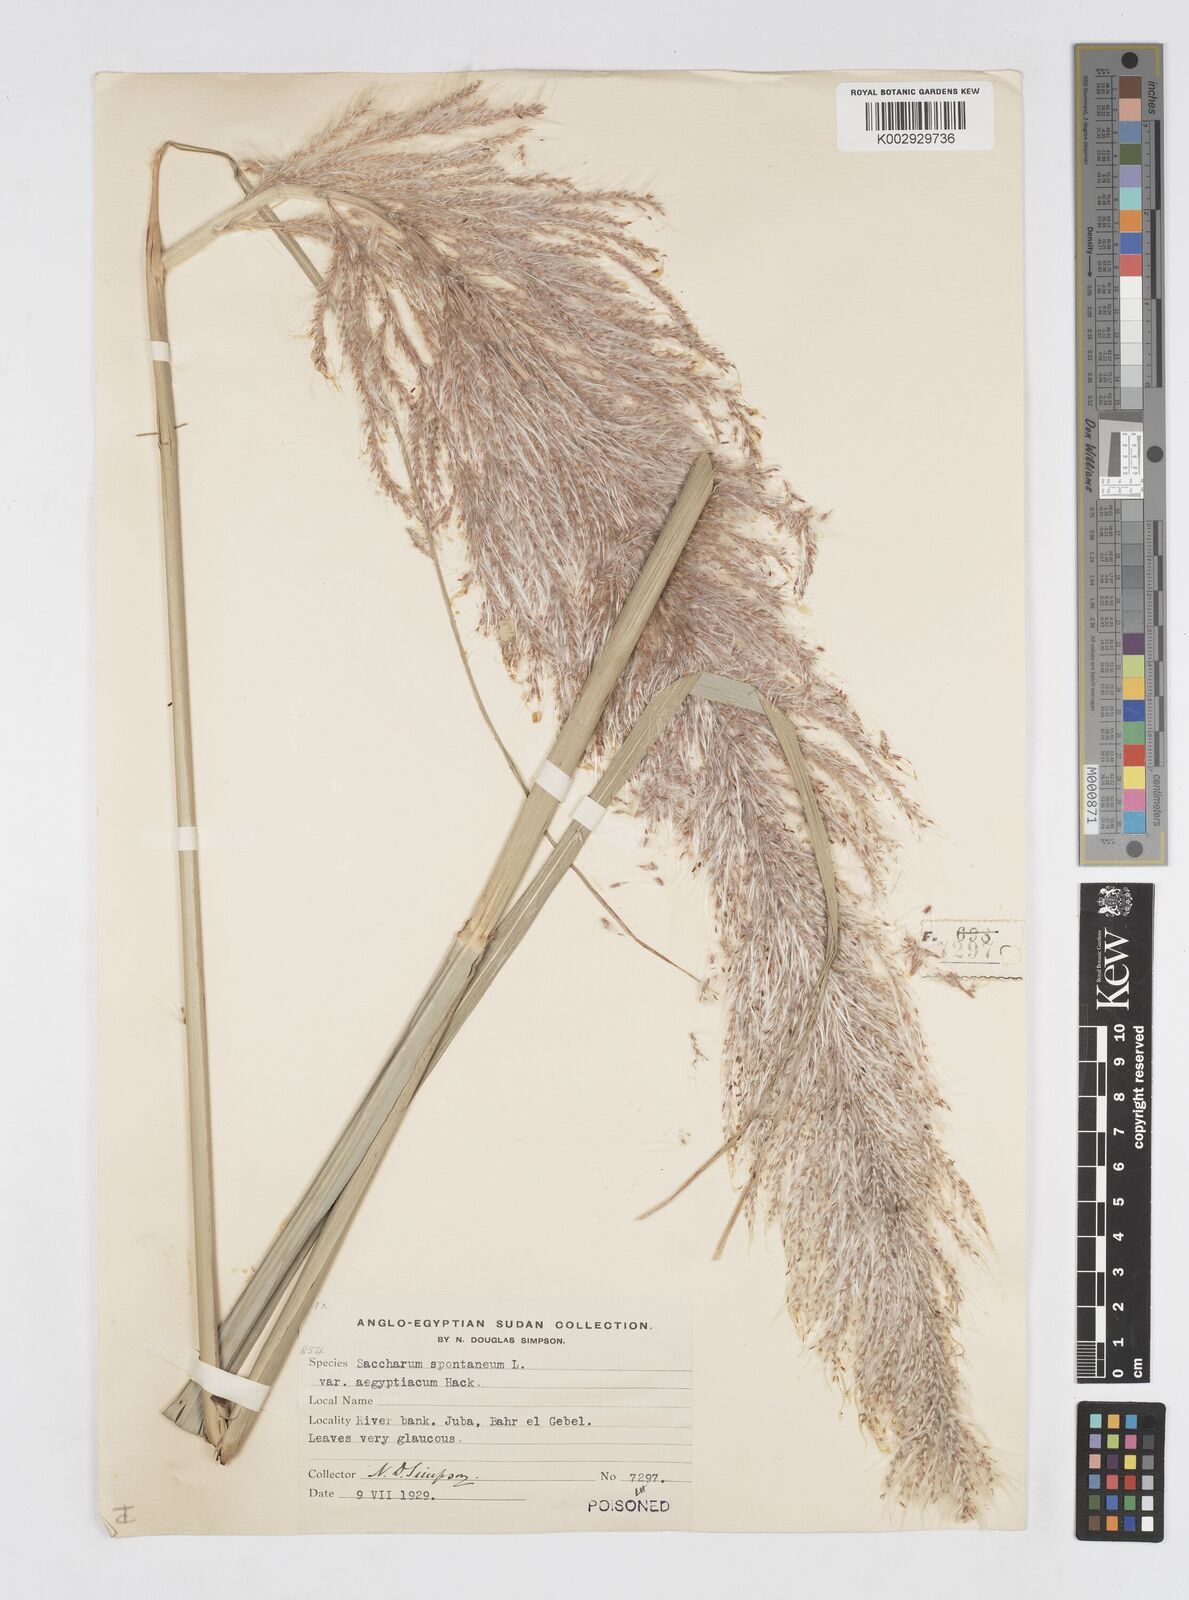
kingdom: Plantae
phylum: Tracheophyta
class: Liliopsida
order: Poales
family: Poaceae
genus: Saccharum
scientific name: Saccharum spontaneum
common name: Wild sugarcane
